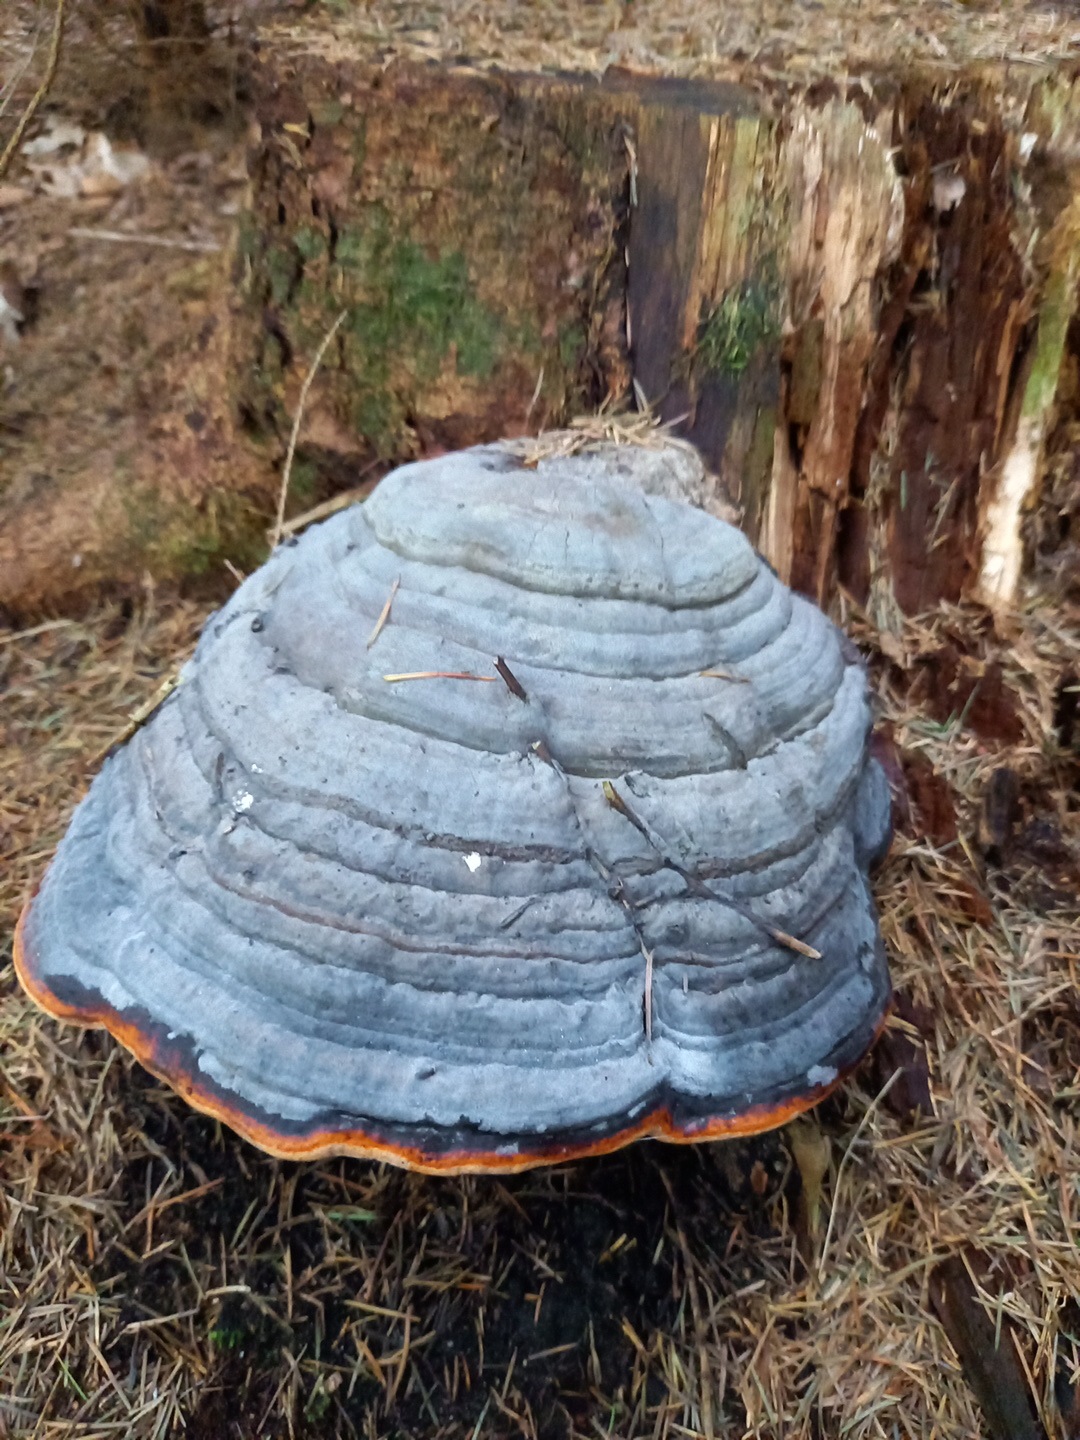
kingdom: Fungi
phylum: Basidiomycota
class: Agaricomycetes
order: Polyporales
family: Fomitopsidaceae
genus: Fomitopsis
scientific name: Fomitopsis pinicola
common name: randbæltet hovporesvamp
